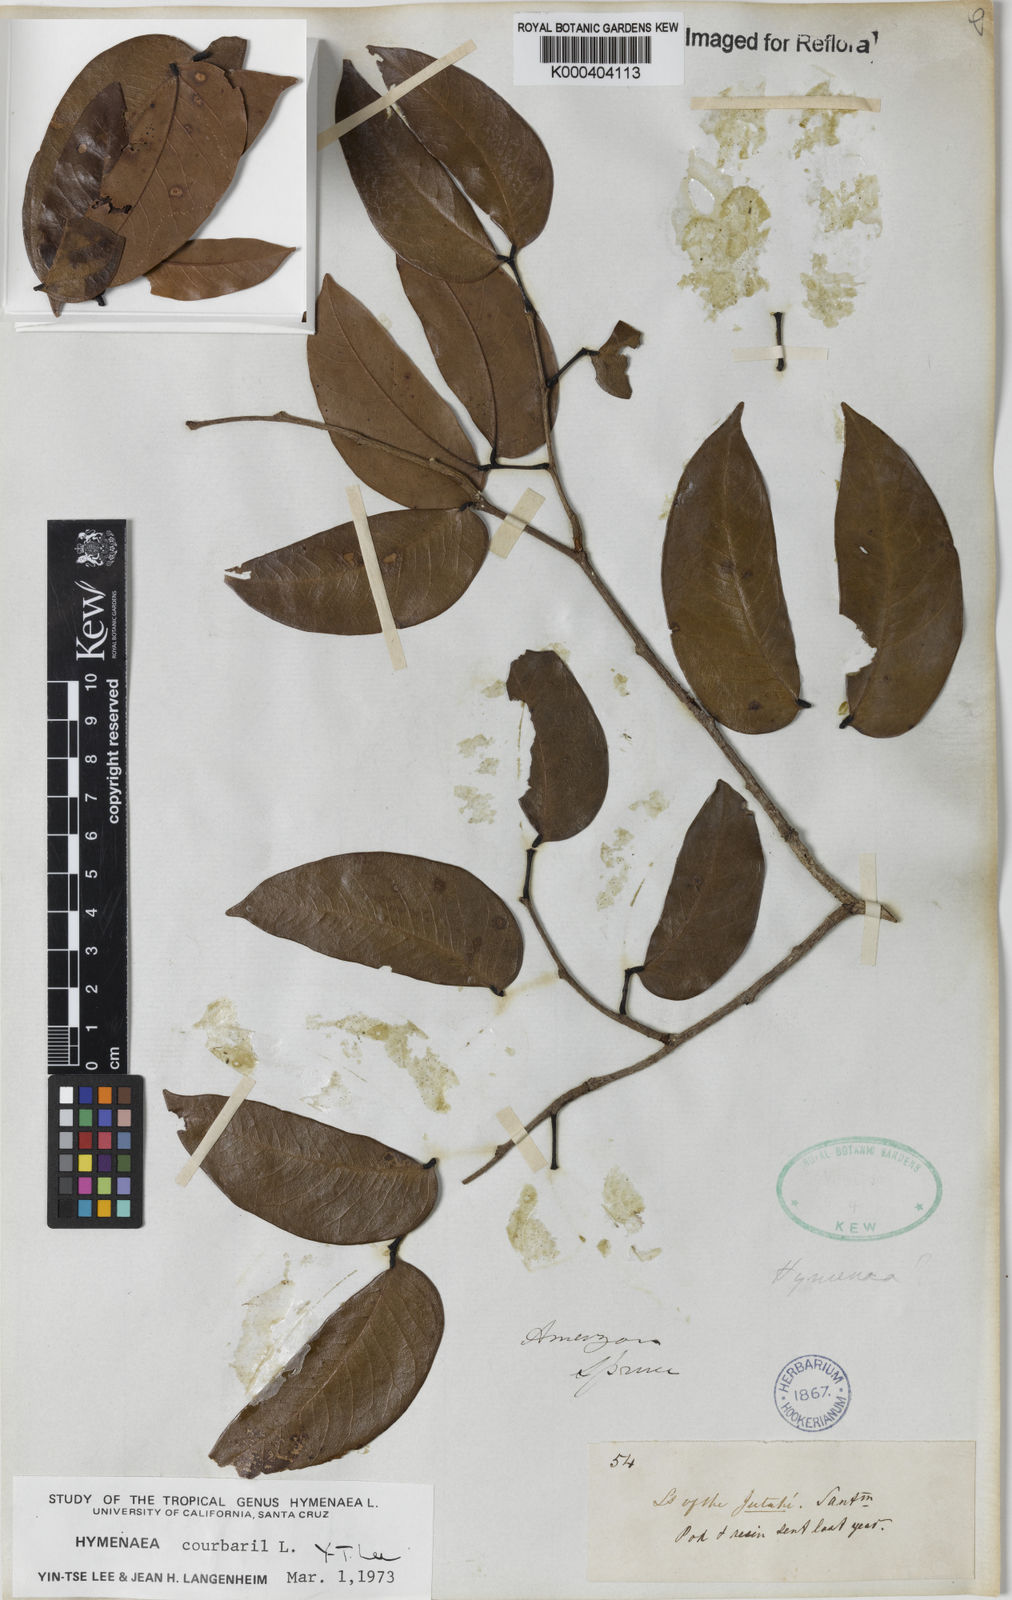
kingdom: Plantae
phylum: Tracheophyta
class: Magnoliopsida
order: Fabales
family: Fabaceae
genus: Hymenaea
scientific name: Hymenaea courbaril
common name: Brazilian copal
